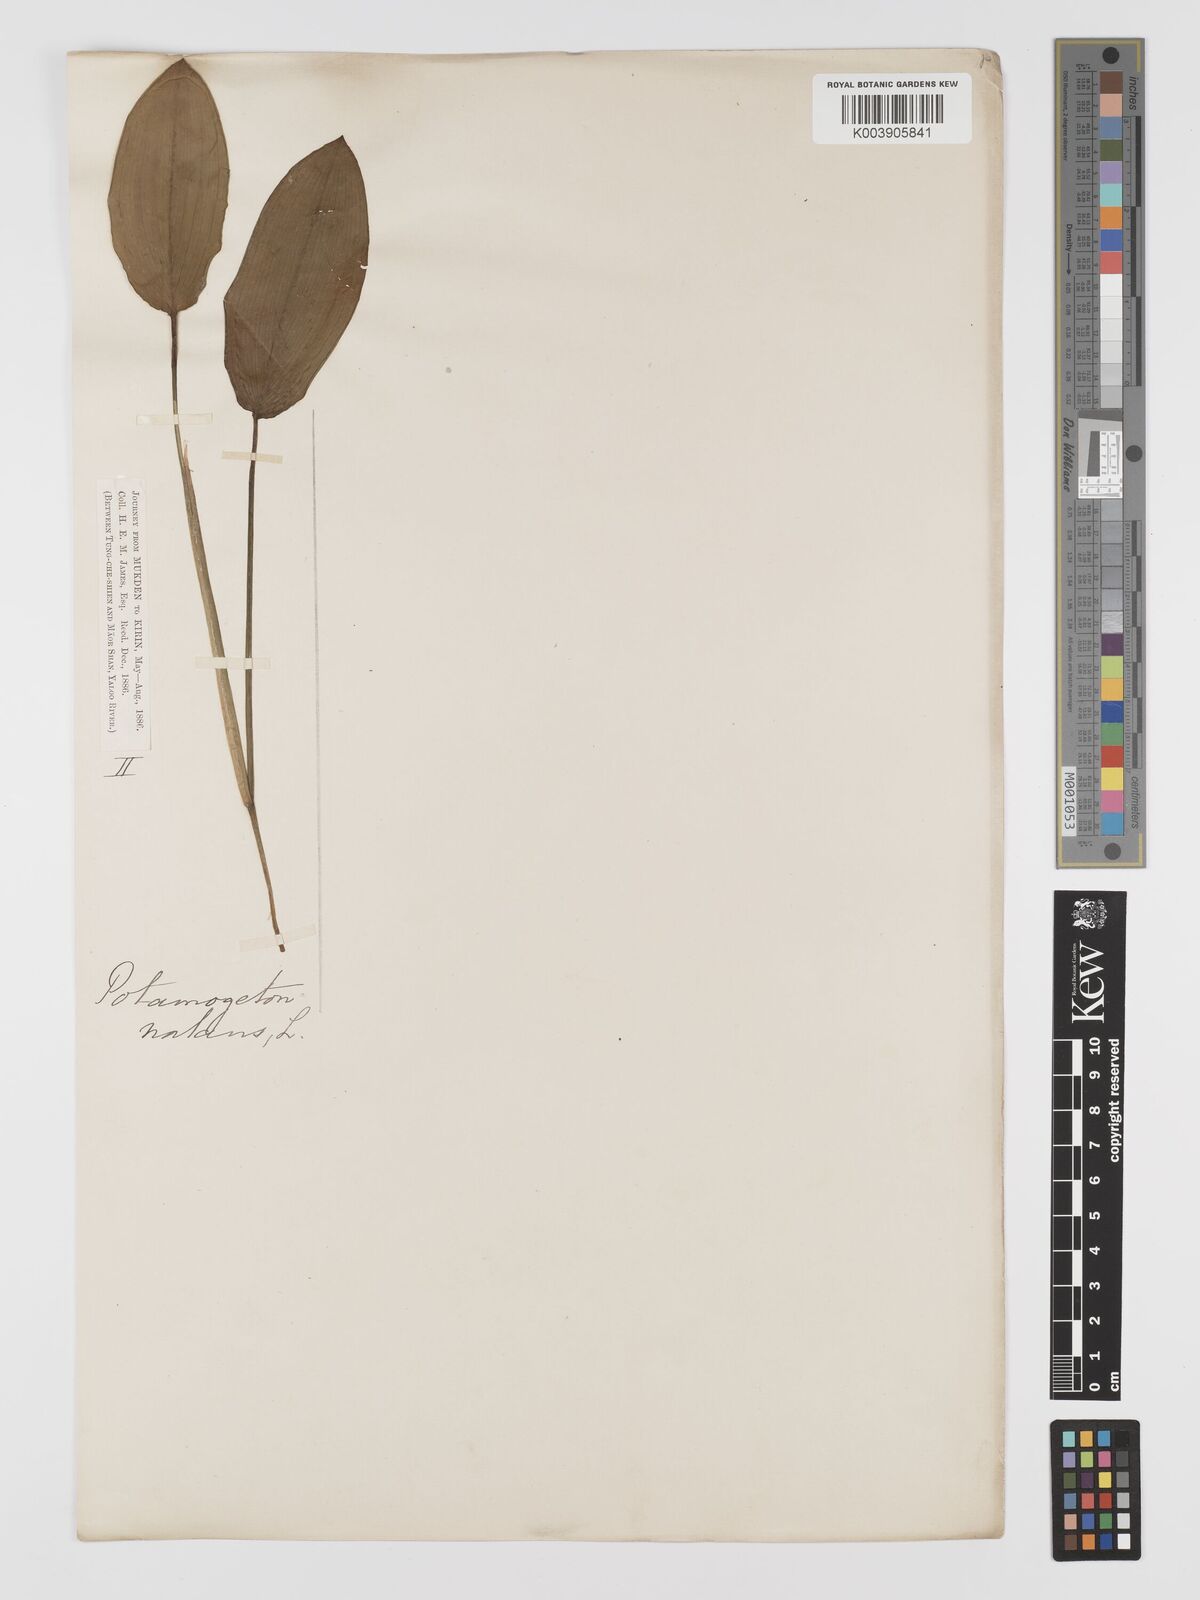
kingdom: Plantae
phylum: Tracheophyta
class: Liliopsida
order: Alismatales
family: Potamogetonaceae
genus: Potamogeton
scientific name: Potamogeton natans
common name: Broad-leaved pondweed
